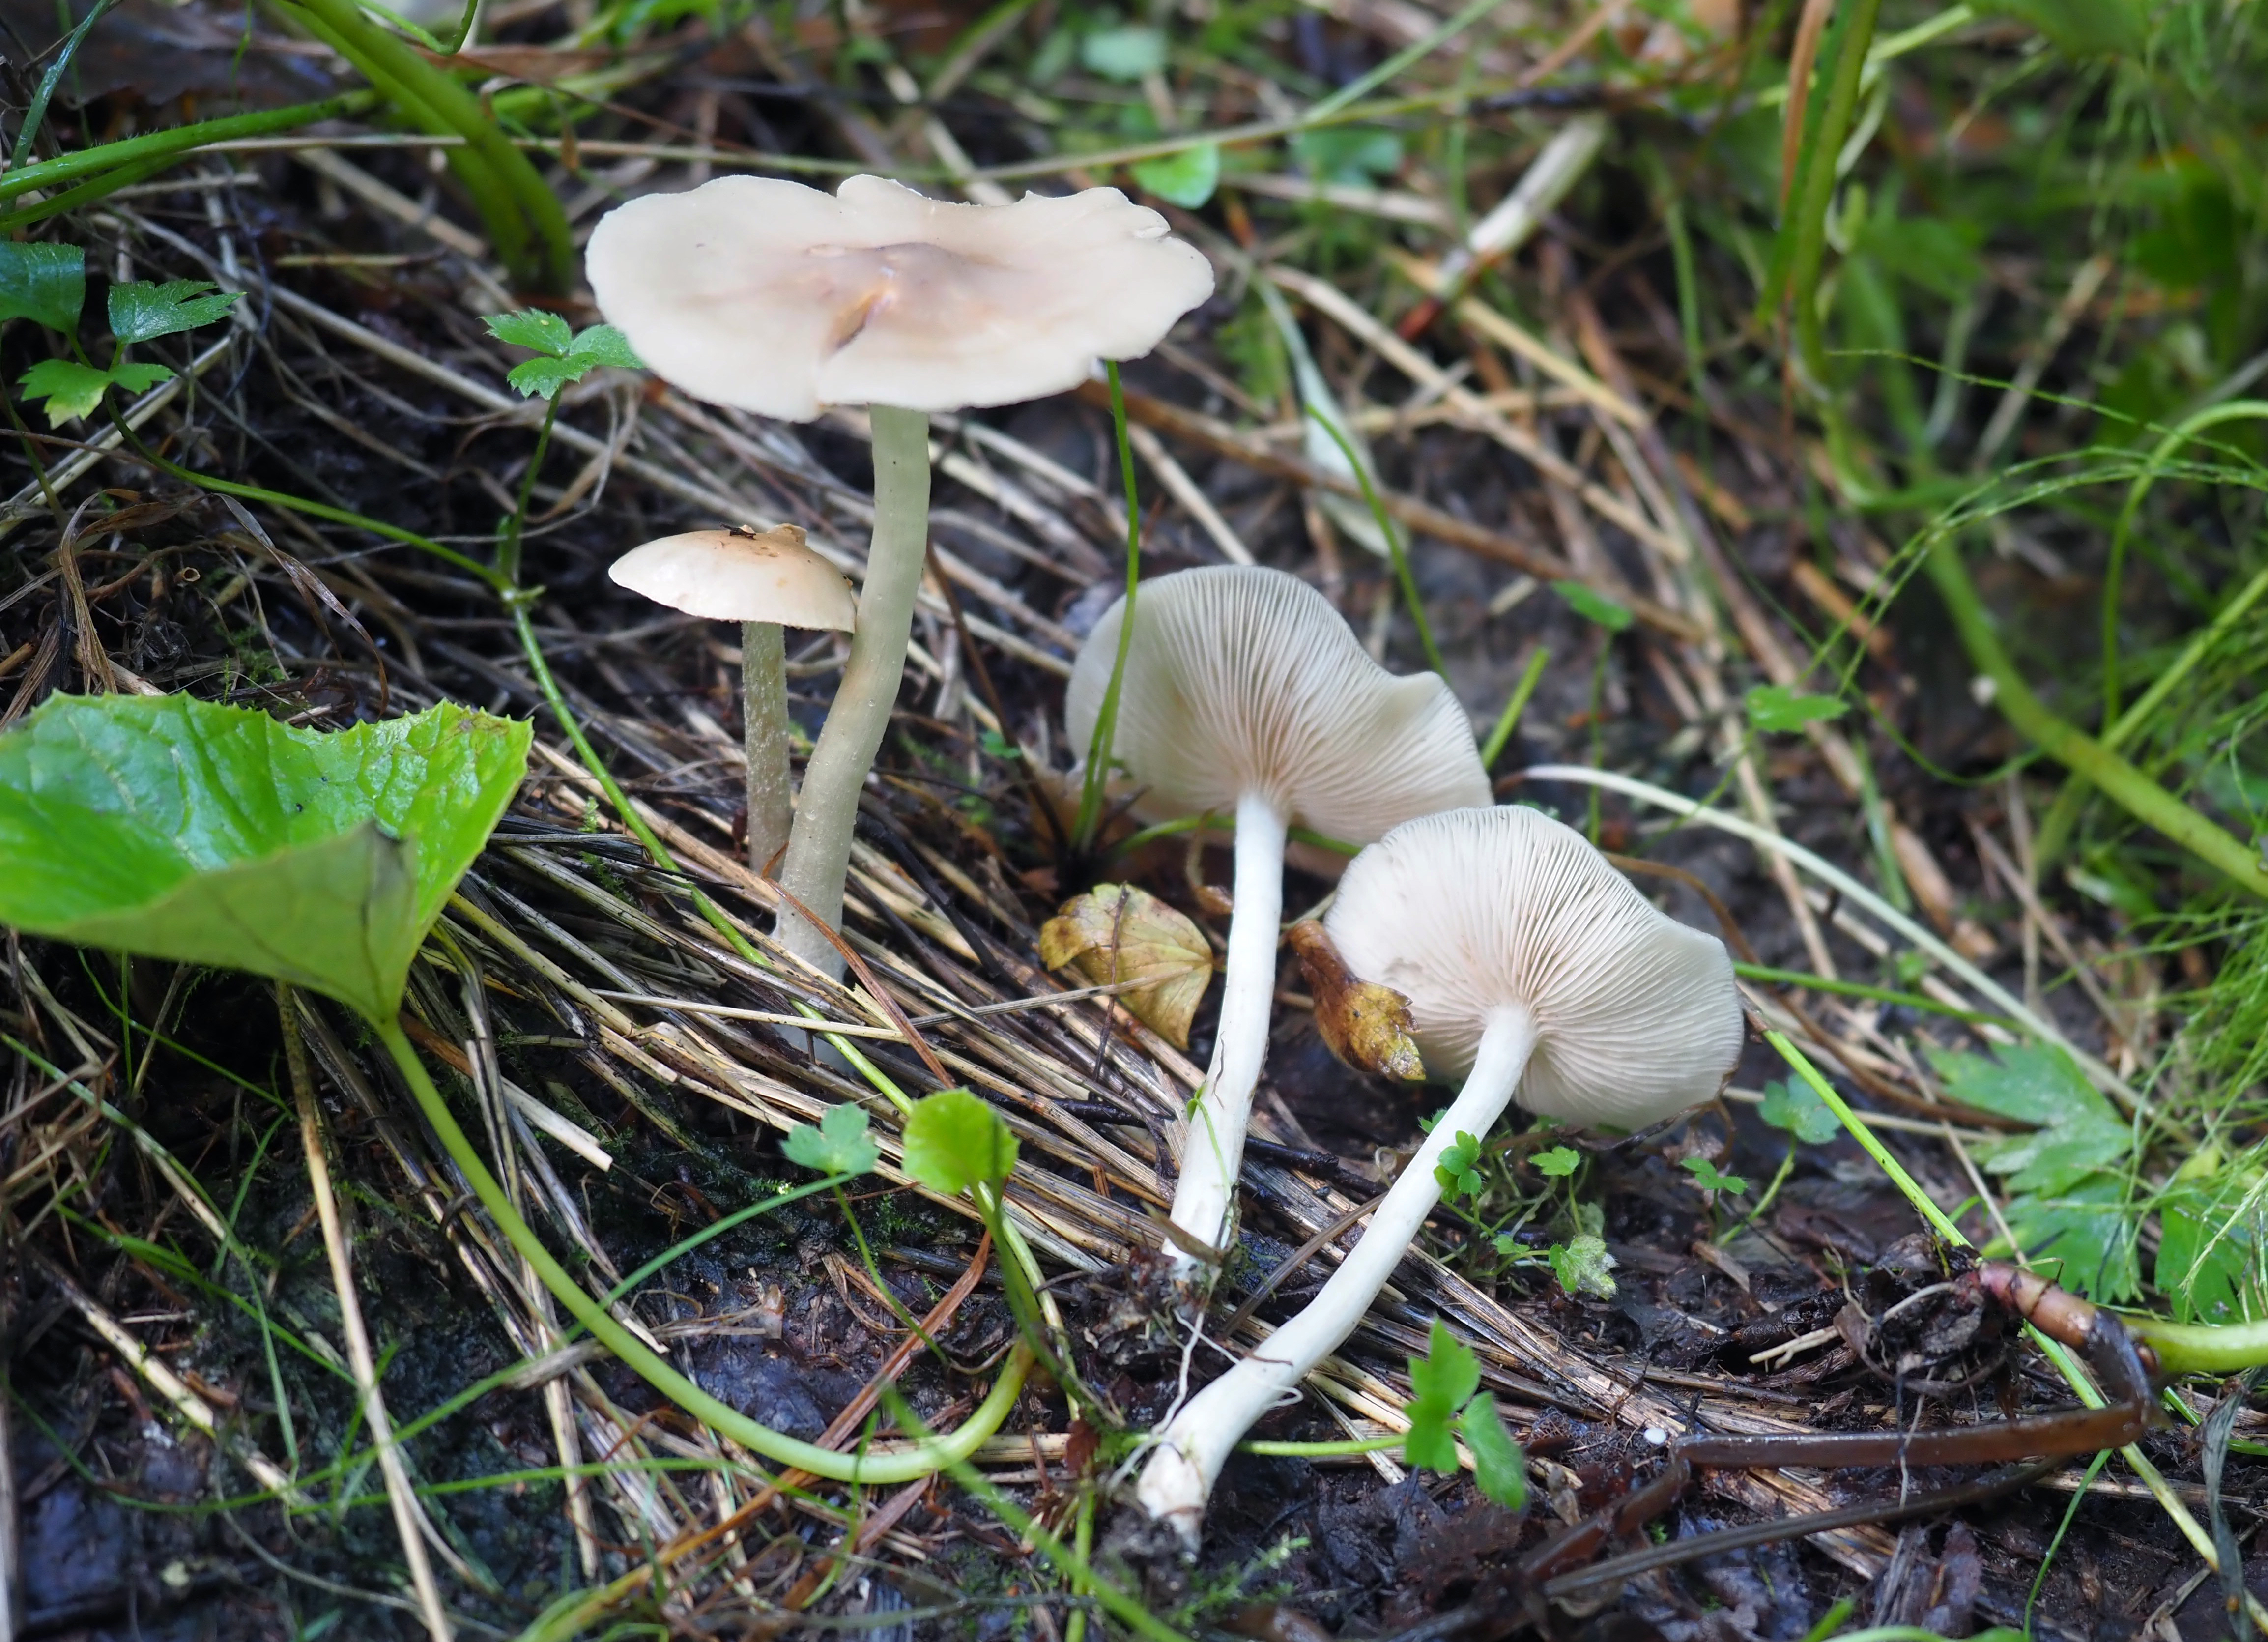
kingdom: Fungi
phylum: Basidiomycota
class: Agaricomycetes
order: Agaricales
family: Entolomataceae
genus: Entoloma
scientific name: Entoloma
